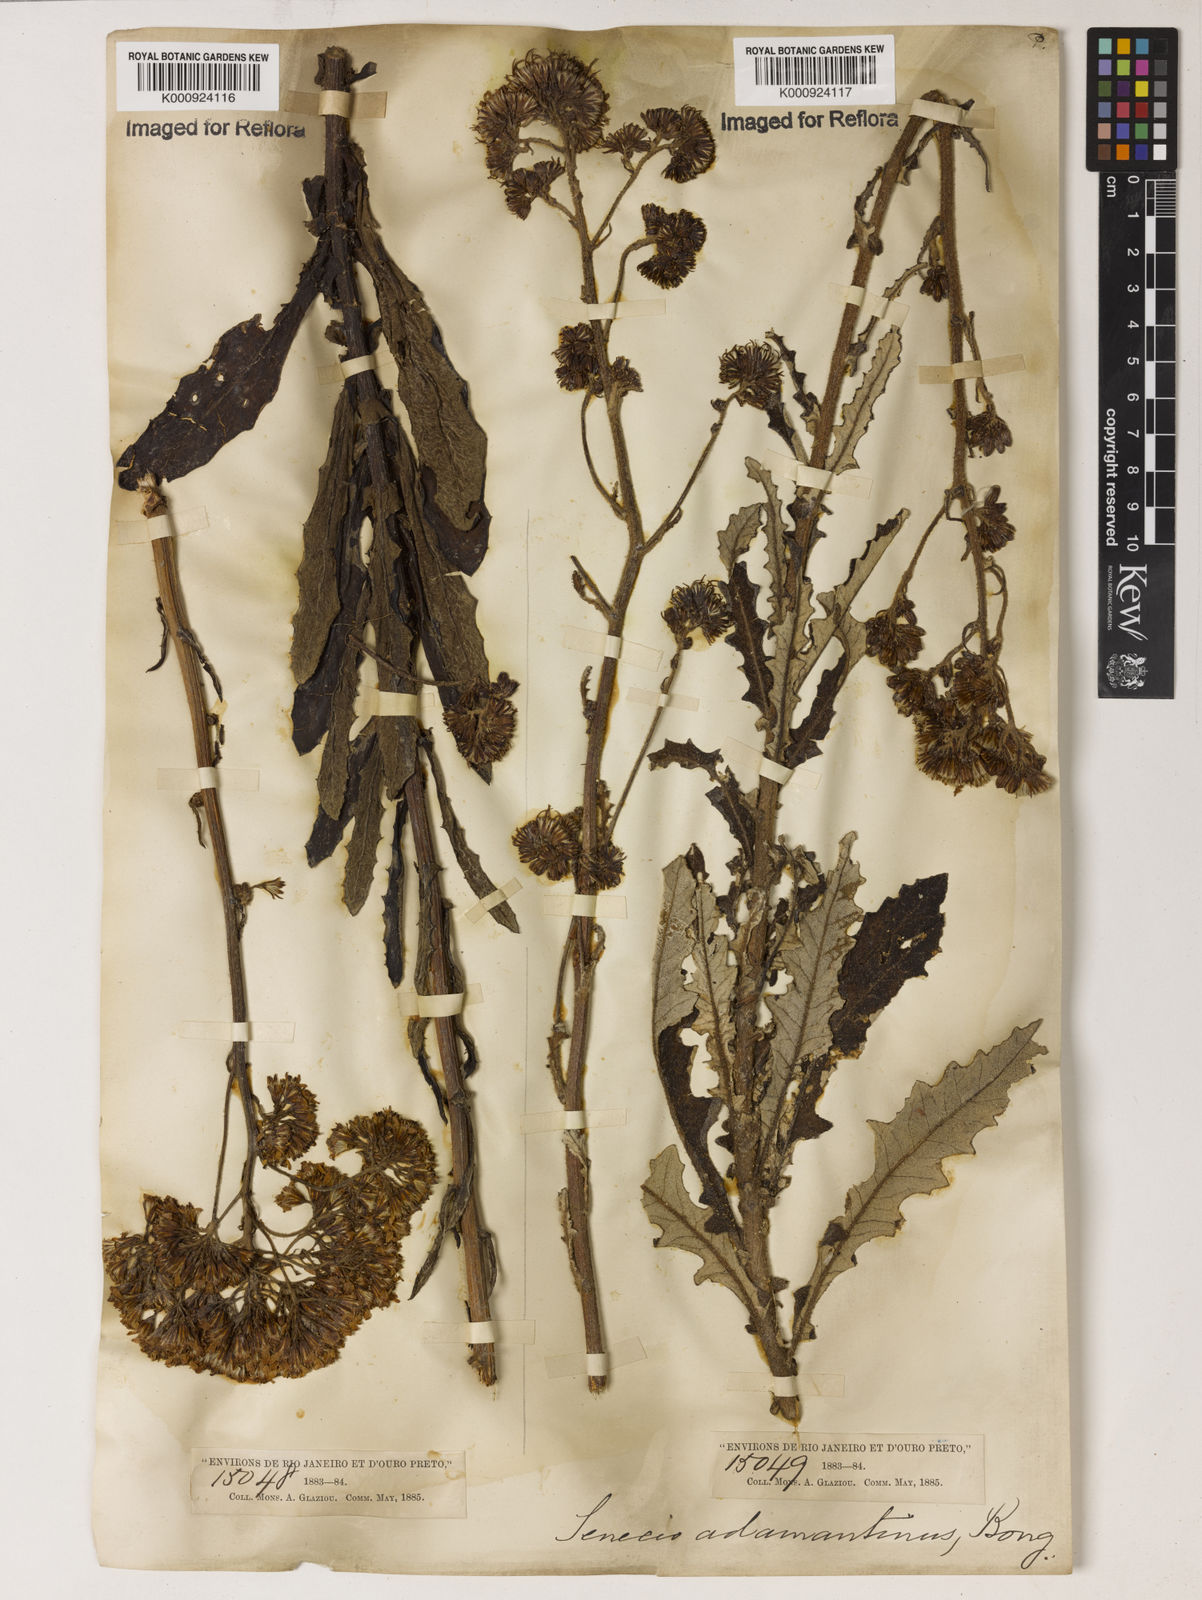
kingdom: Plantae
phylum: Tracheophyta
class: Magnoliopsida
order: Asterales
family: Asteraceae
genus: Senecio
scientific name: Senecio
